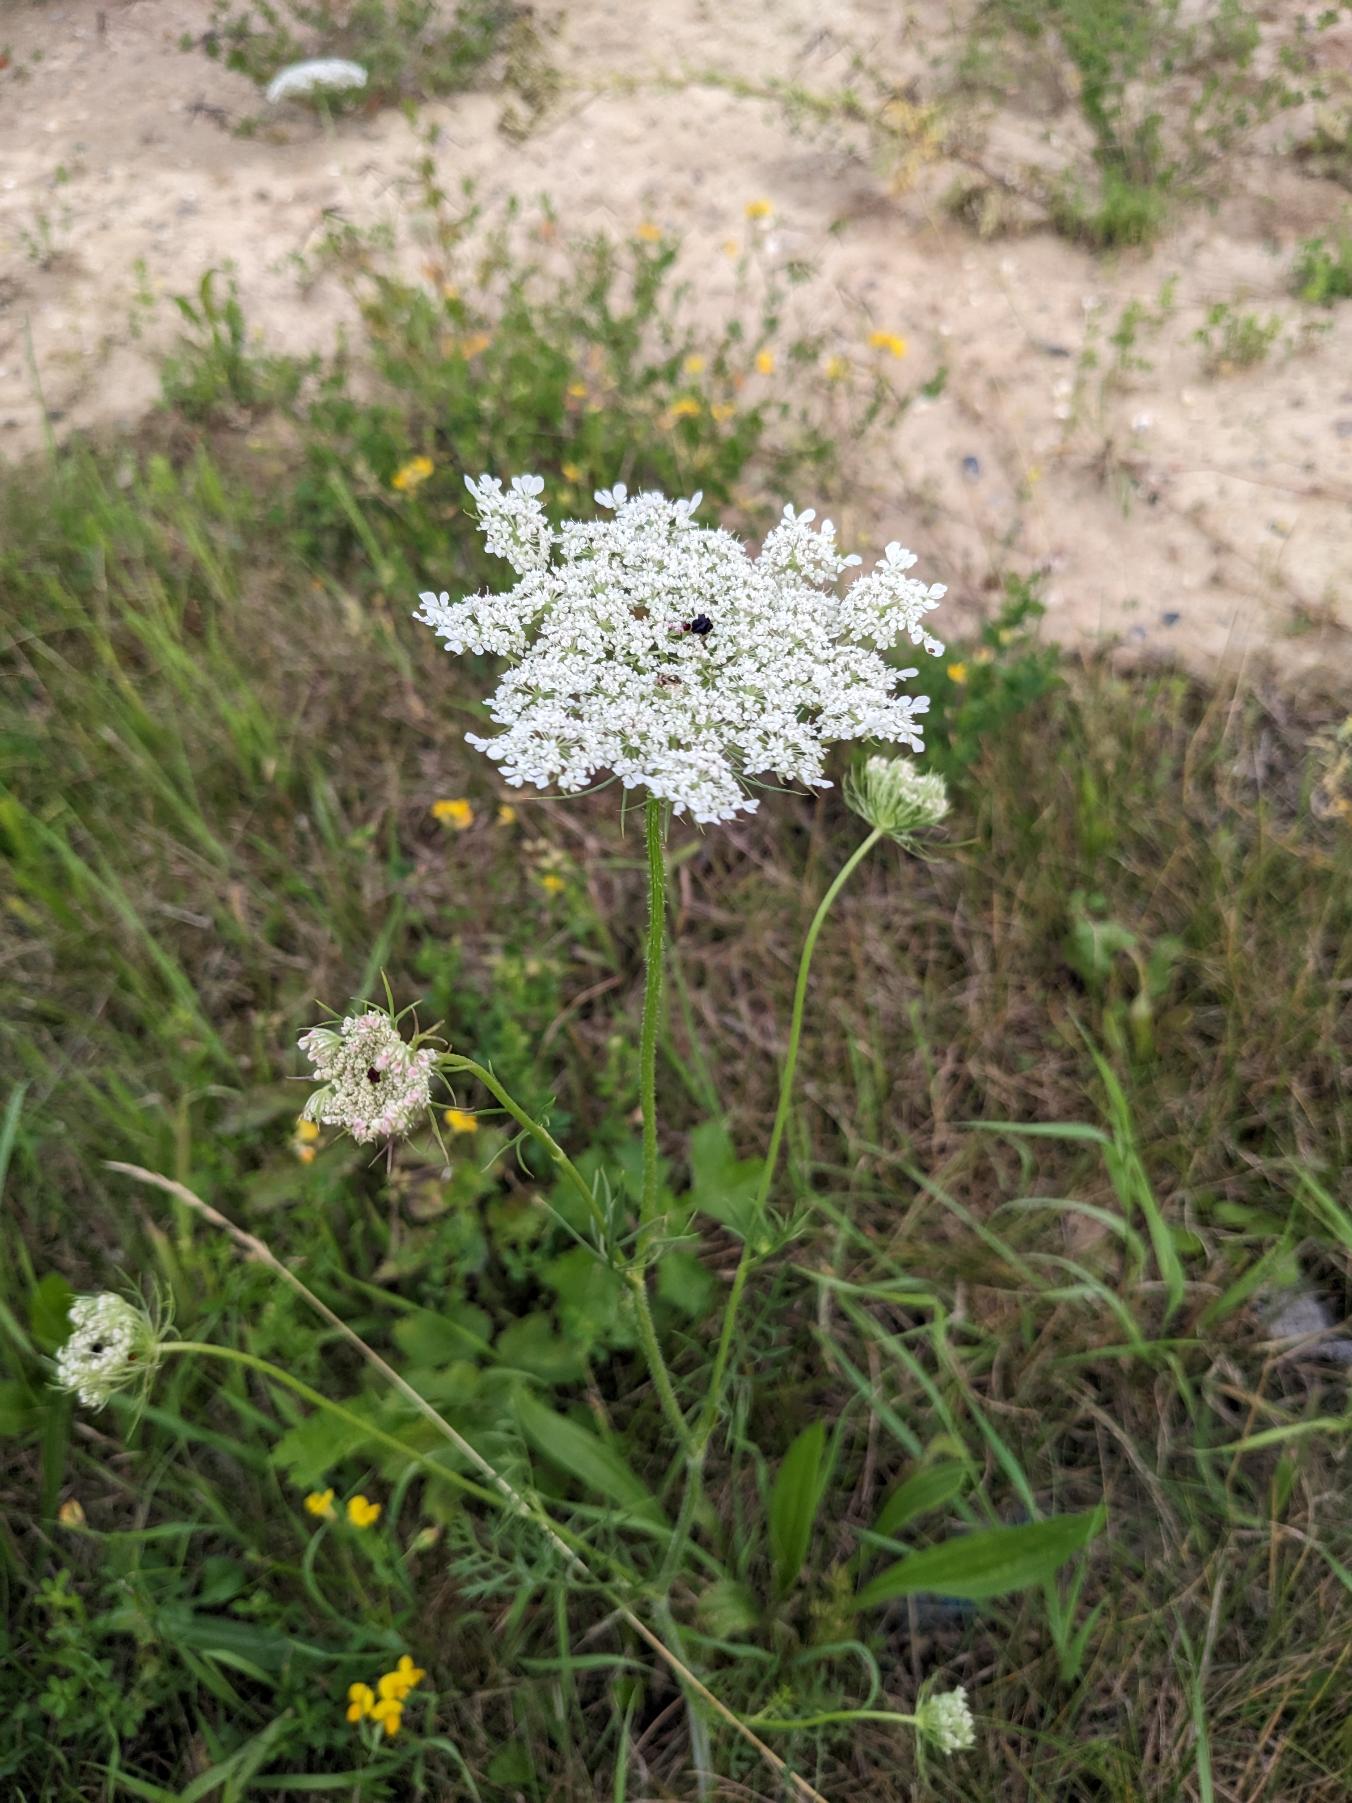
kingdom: Plantae
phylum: Tracheophyta
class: Magnoliopsida
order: Apiales
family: Apiaceae
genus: Daucus
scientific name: Daucus carota
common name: Gulerod
